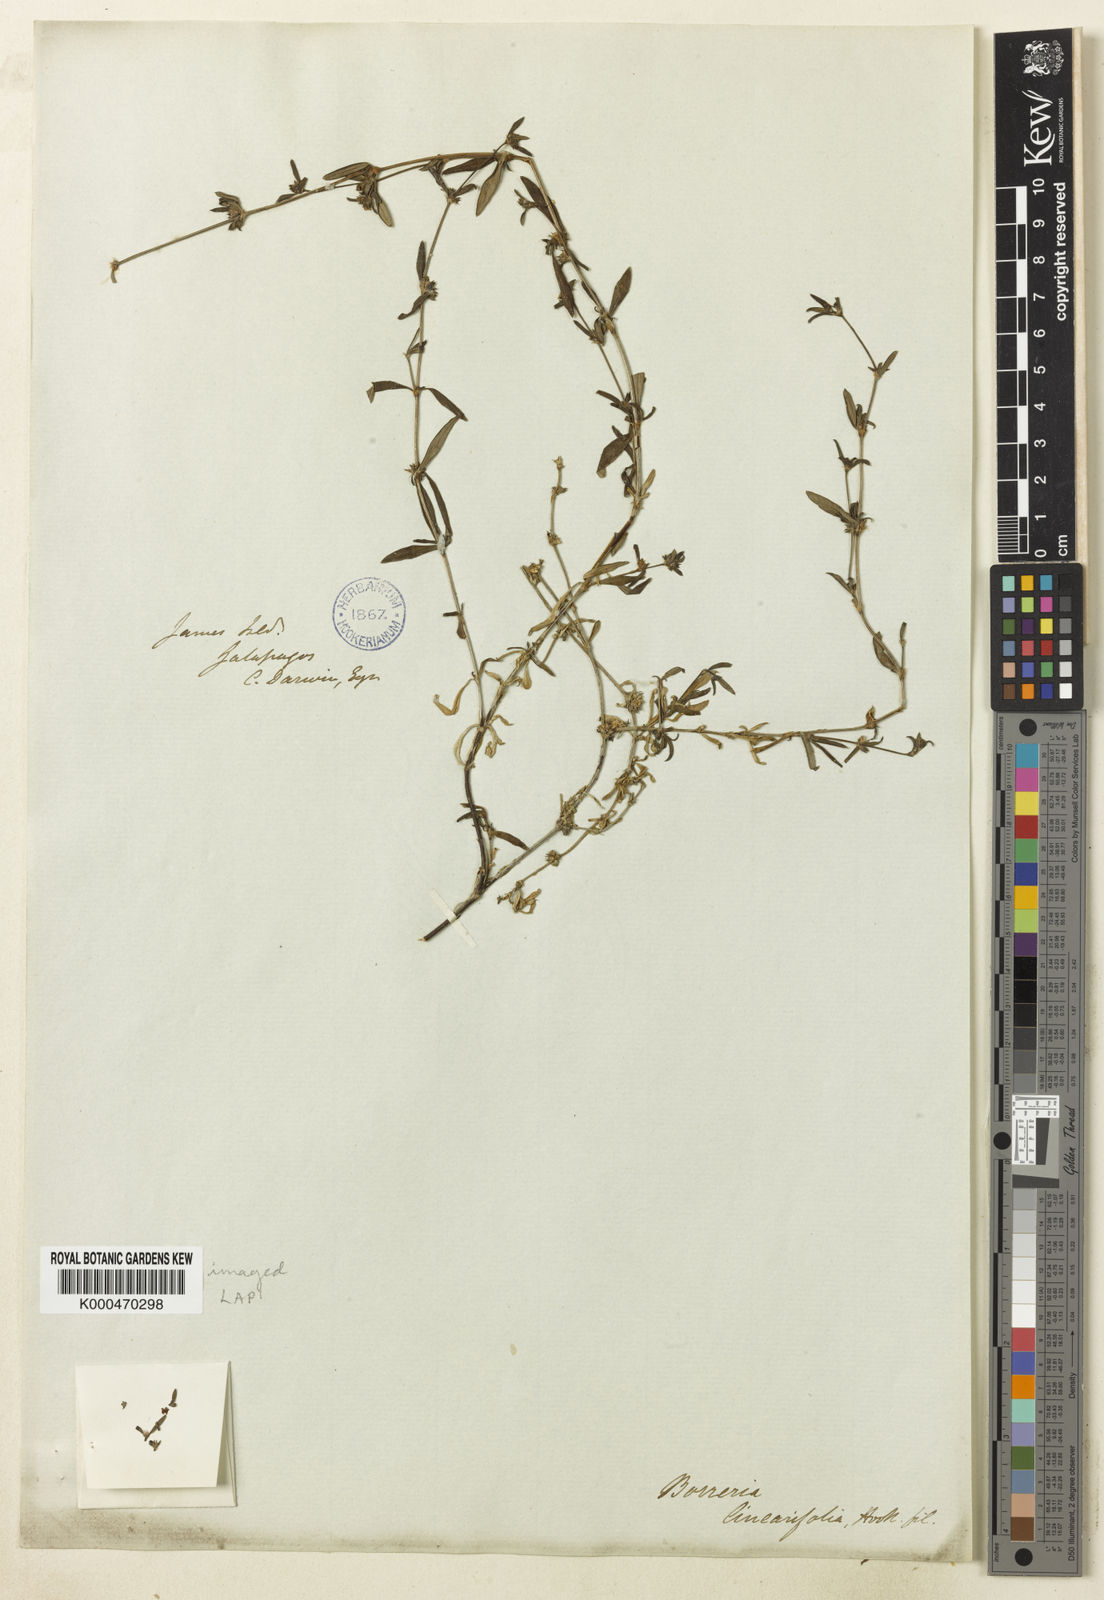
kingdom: Plantae
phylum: Tracheophyta
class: Magnoliopsida
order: Gentianales
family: Rubiaceae
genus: Spermacoce
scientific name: Spermacoce linearifolia
